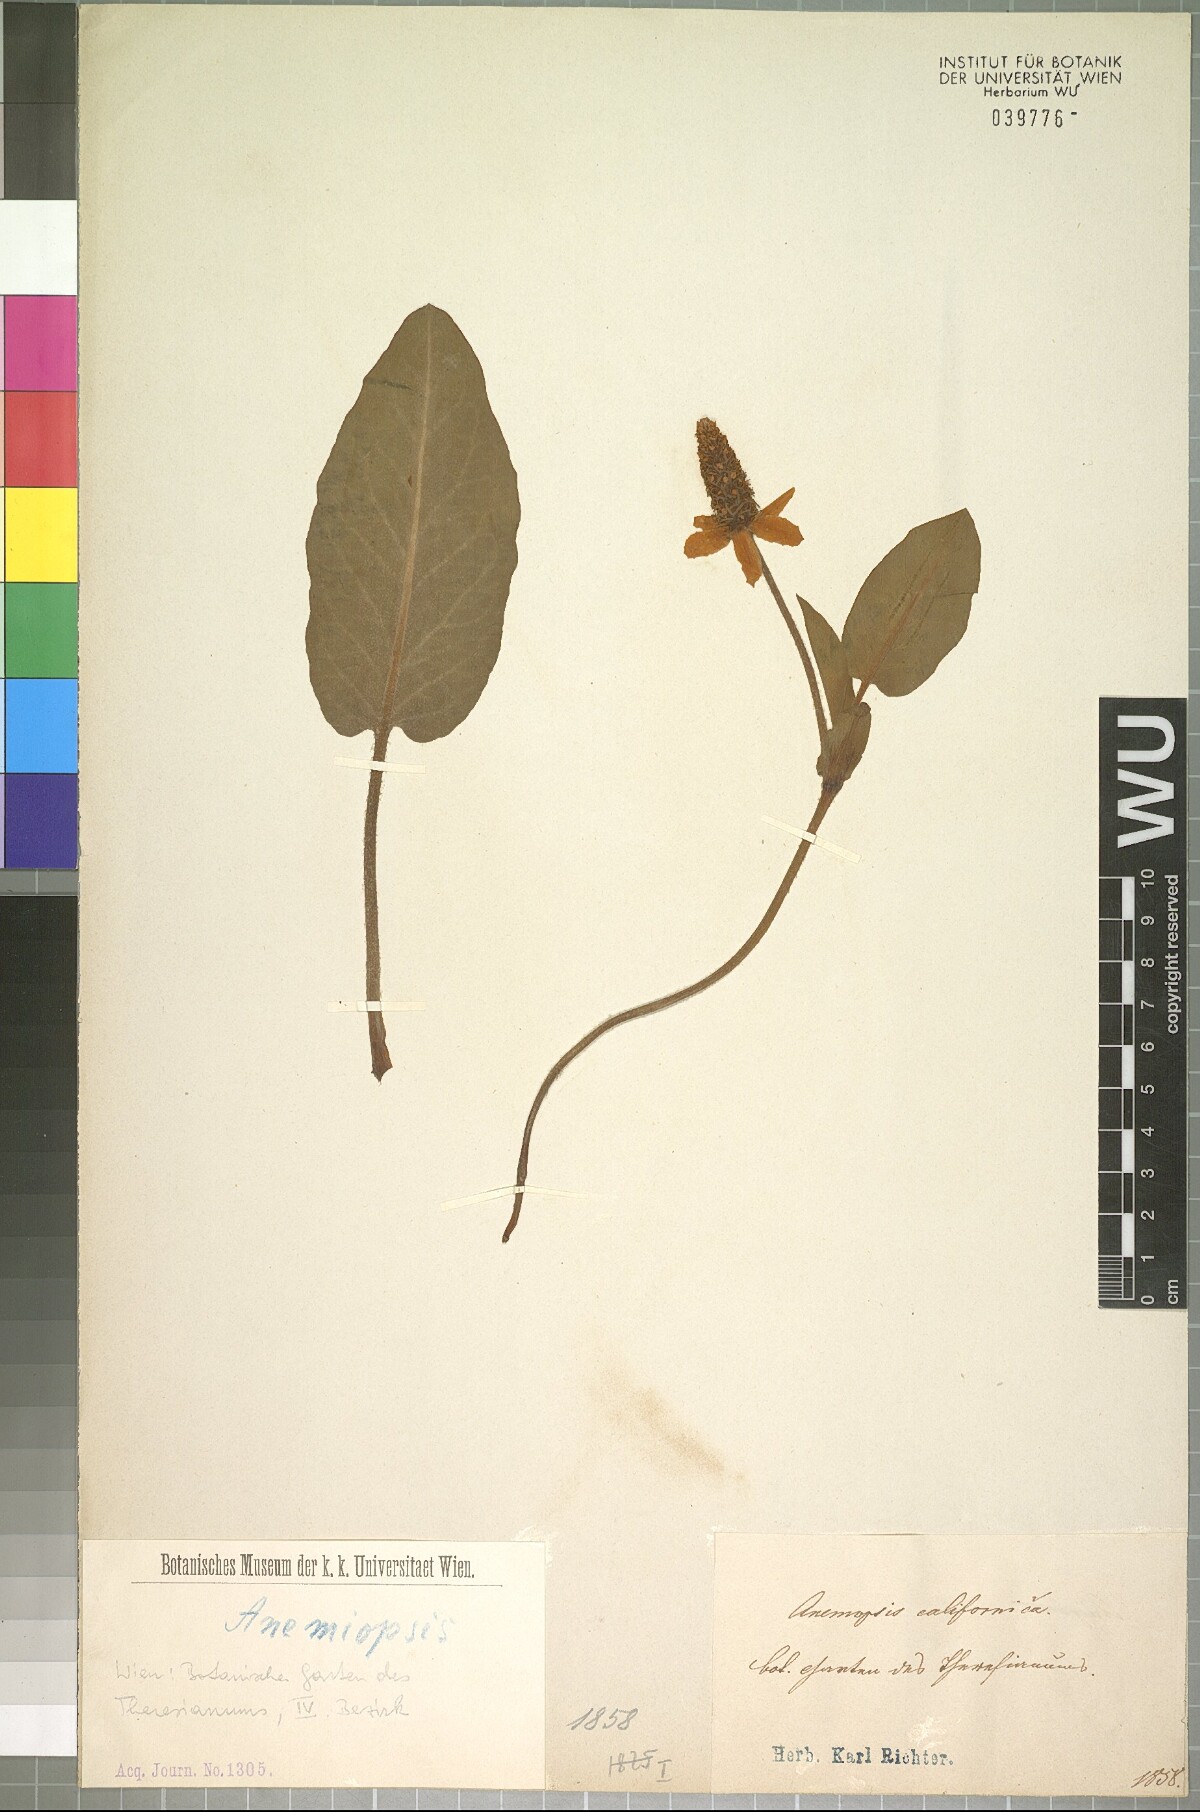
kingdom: Plantae
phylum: Tracheophyta
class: Magnoliopsida
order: Piperales
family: Saururaceae
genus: Anemopsis
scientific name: Anemopsis californica
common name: Apache-beads
